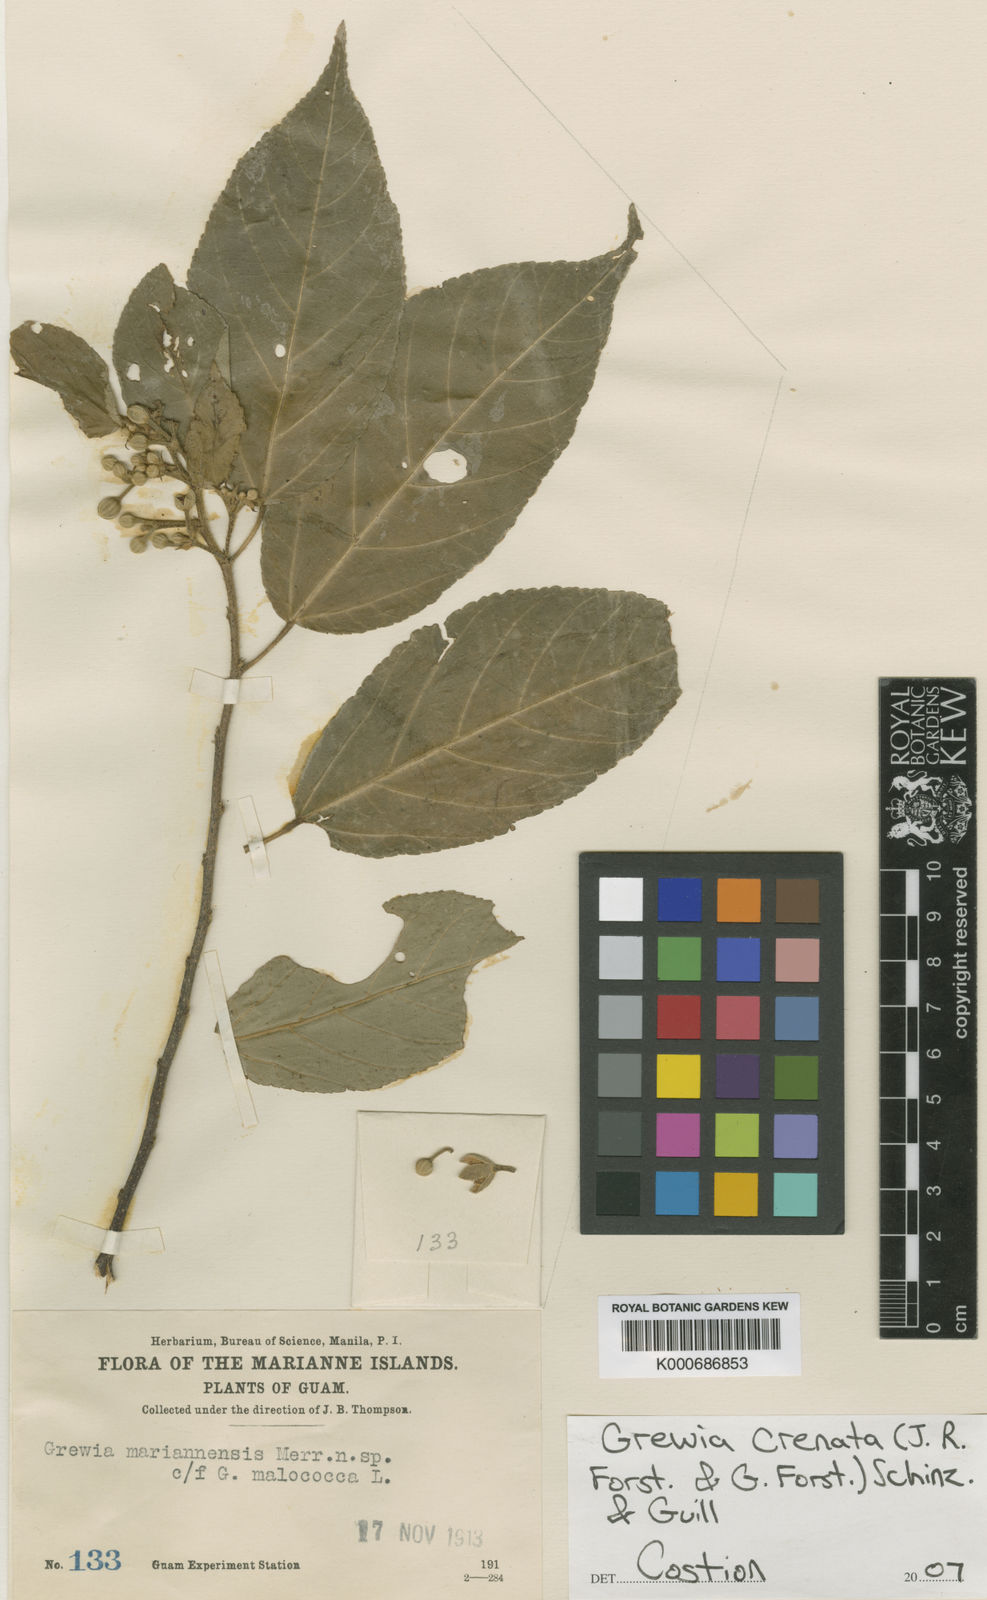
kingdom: Plantae
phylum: Tracheophyta
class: Magnoliopsida
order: Malvales
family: Malvaceae
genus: Grewia
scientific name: Grewia crenata
